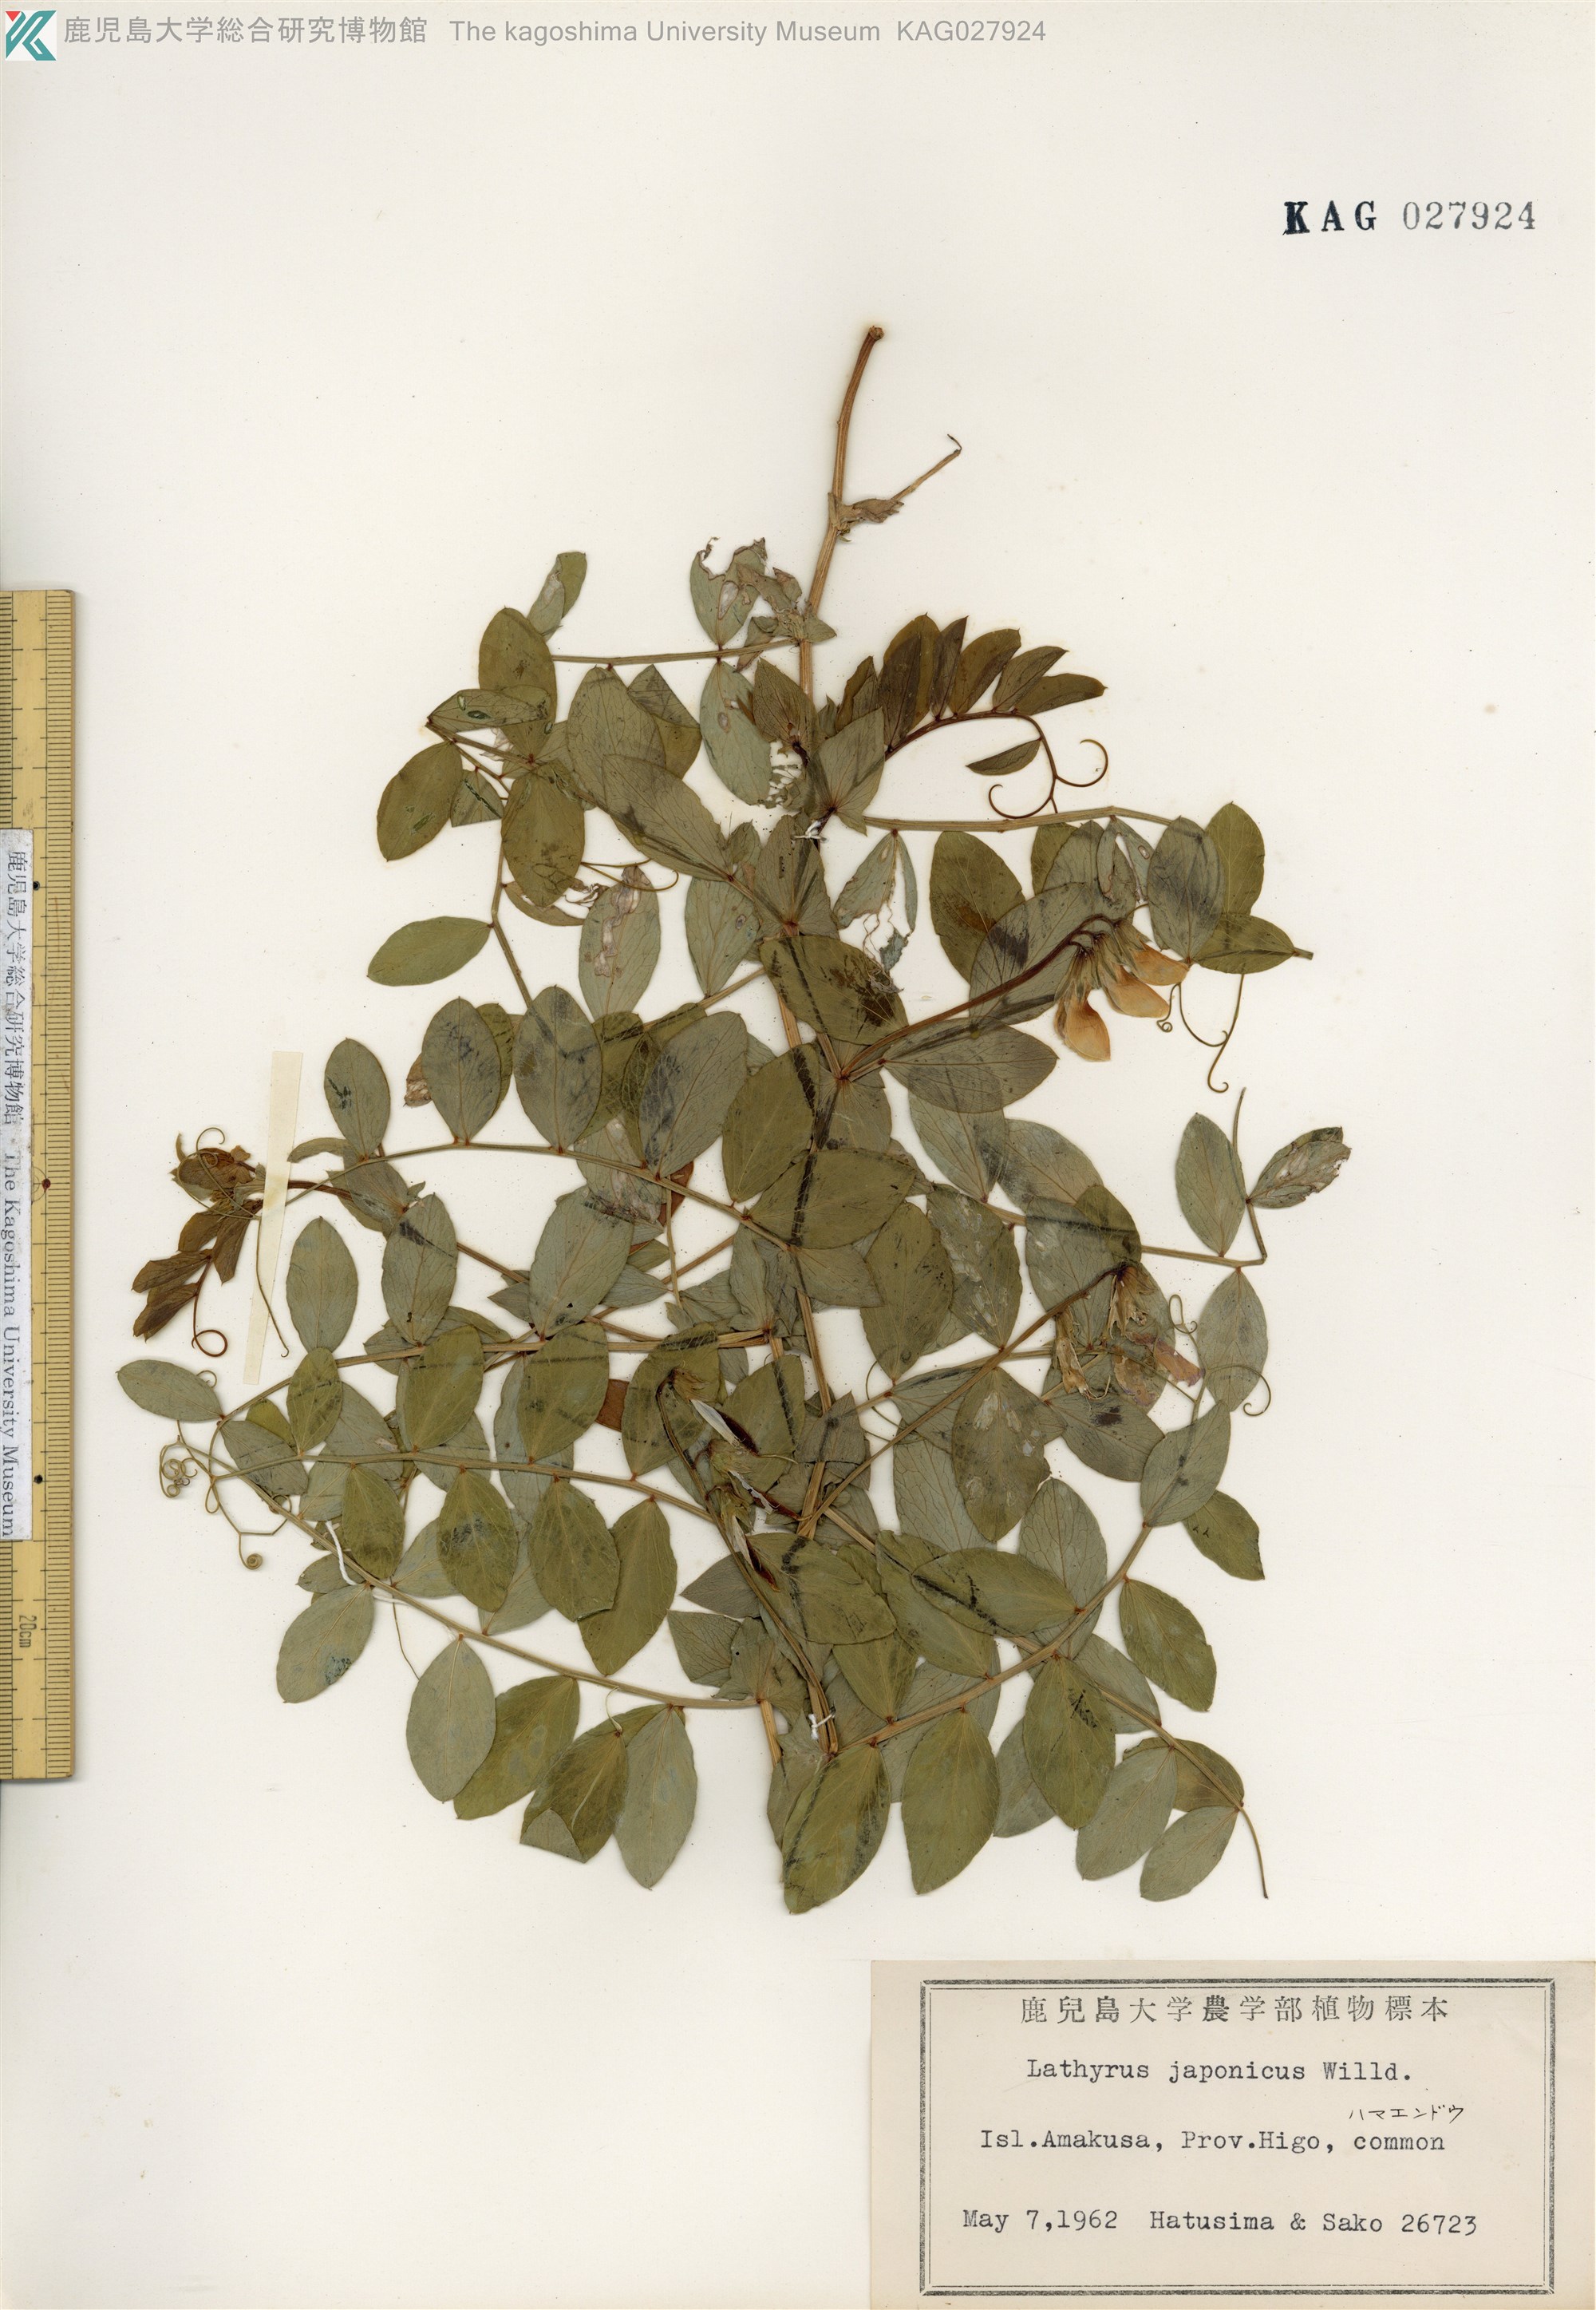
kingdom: Plantae
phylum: Tracheophyta
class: Magnoliopsida
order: Fabales
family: Fabaceae
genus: Lathyrus
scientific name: Lathyrus japonicus
